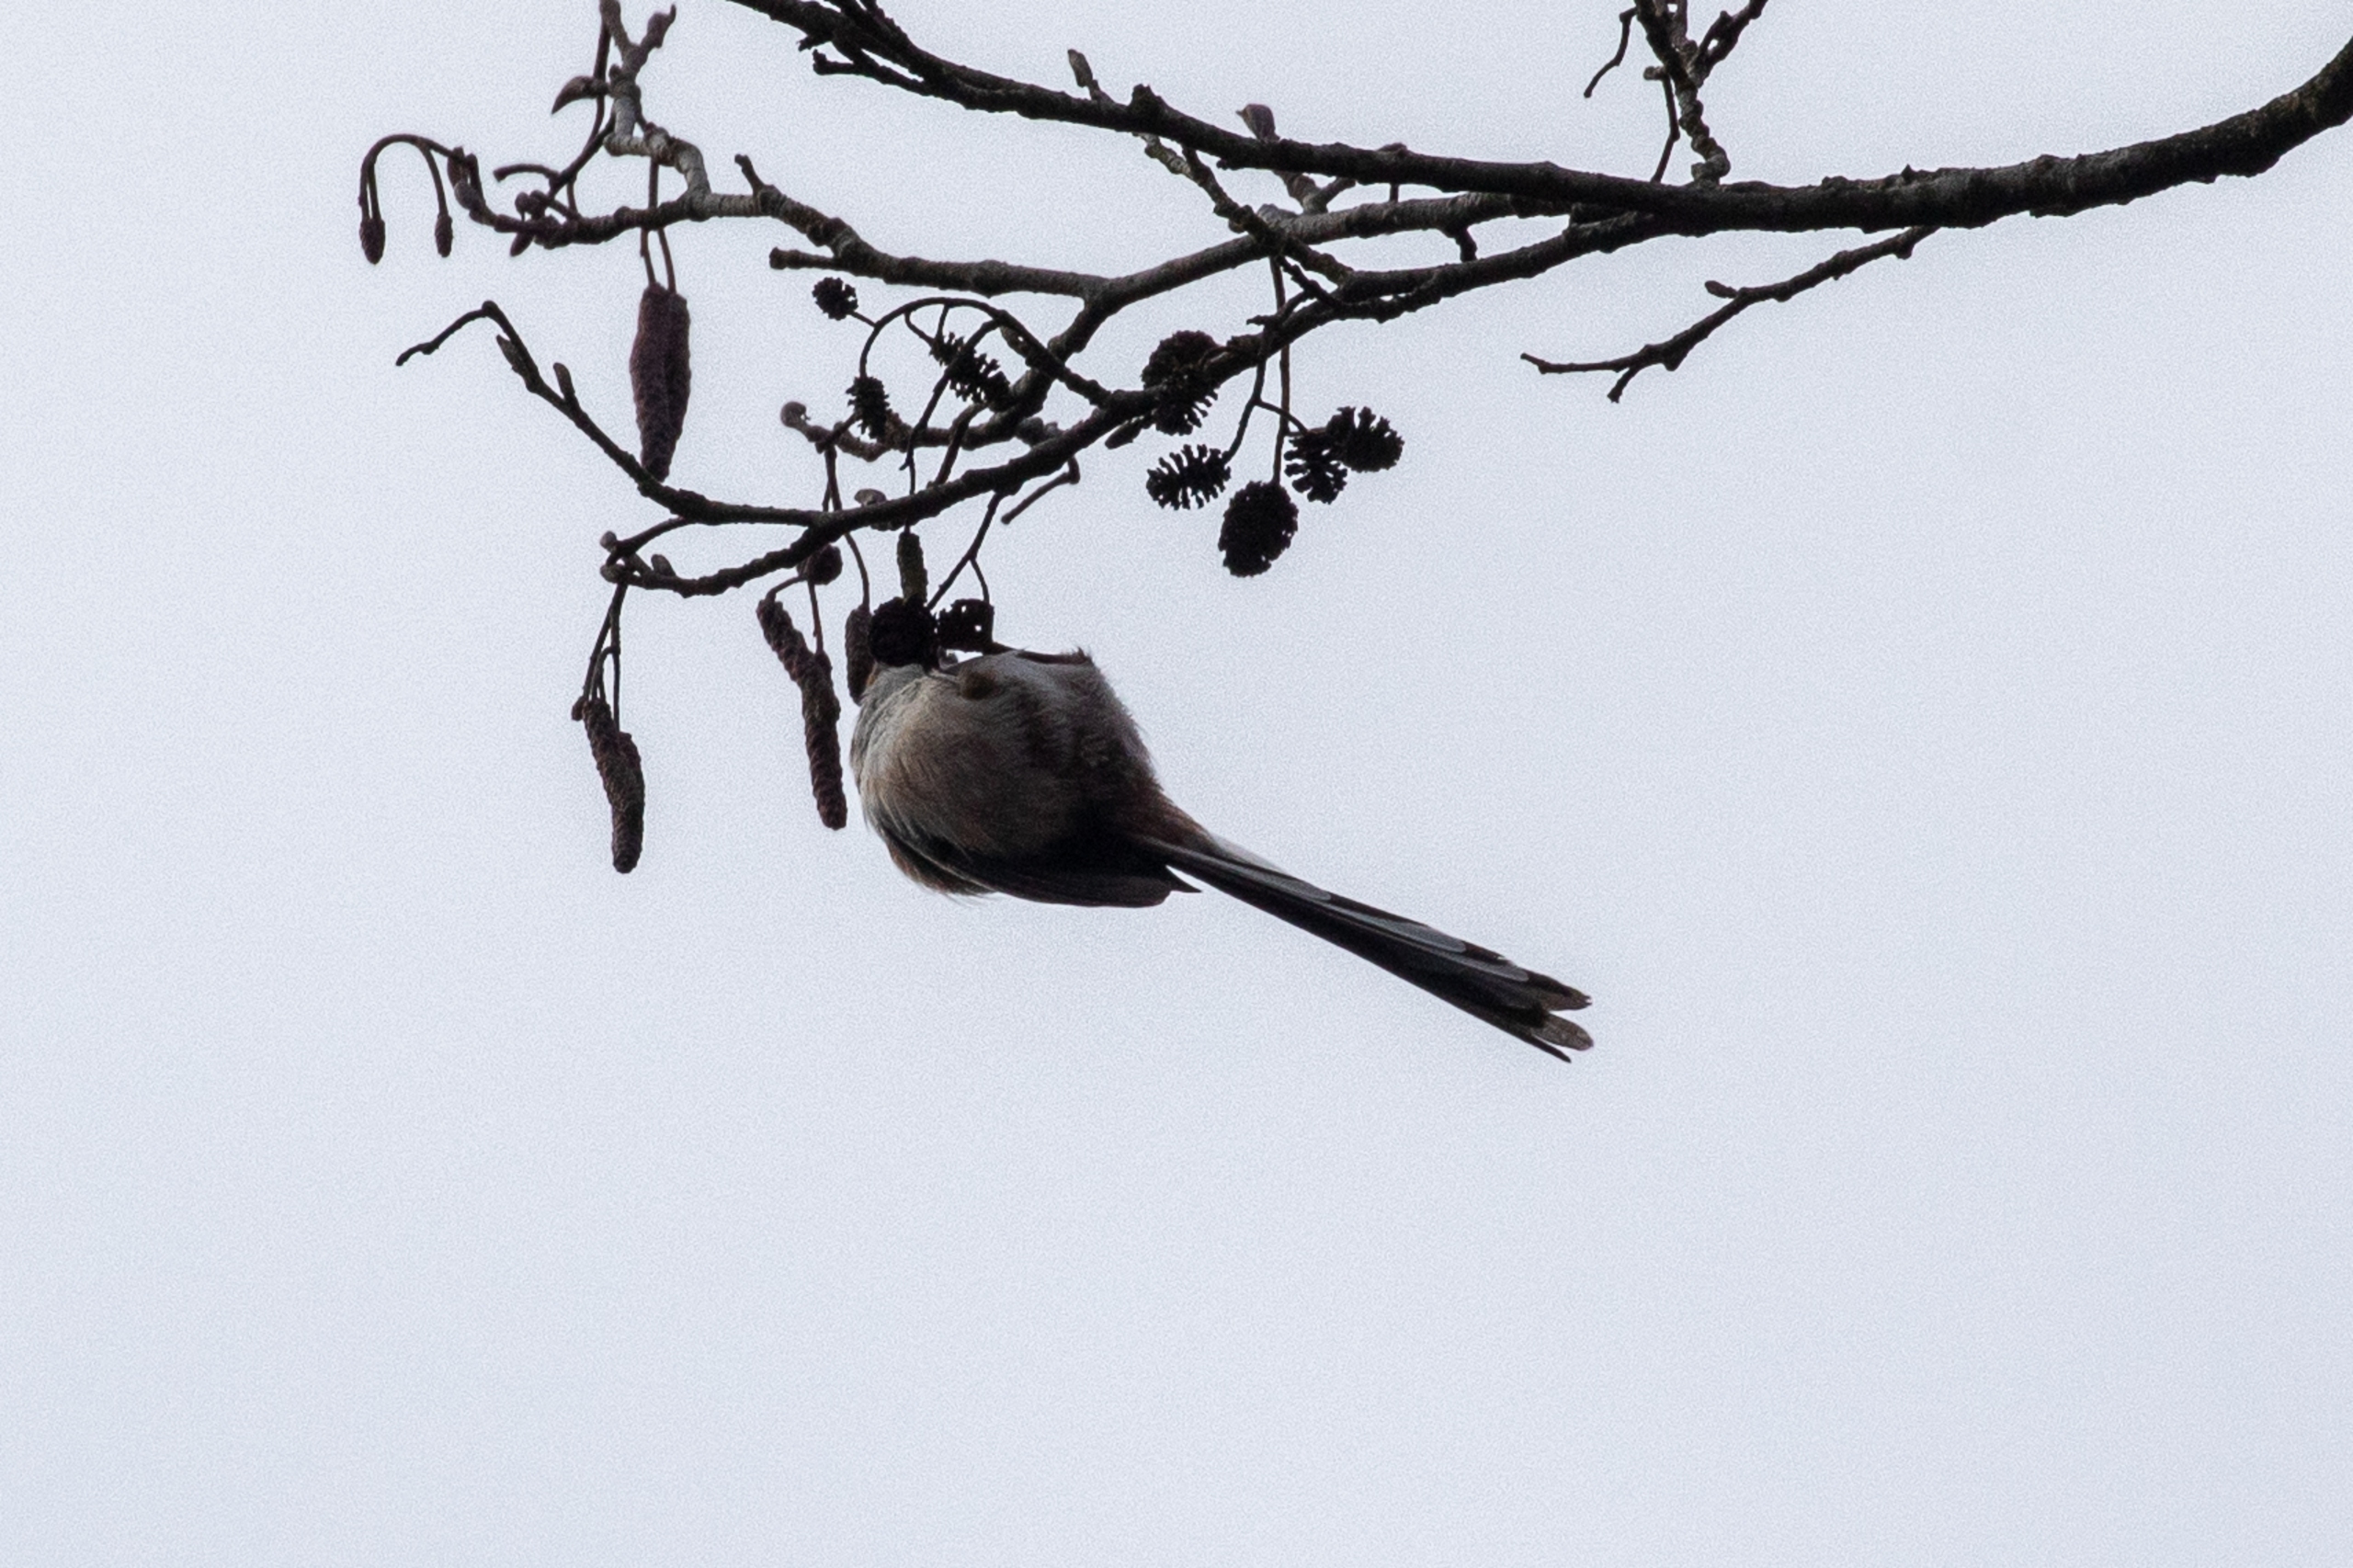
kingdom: Animalia
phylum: Chordata
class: Aves
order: Passeriformes
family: Aegithalidae
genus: Aegithalos
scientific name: Aegithalos caudatus
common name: Halemejse
